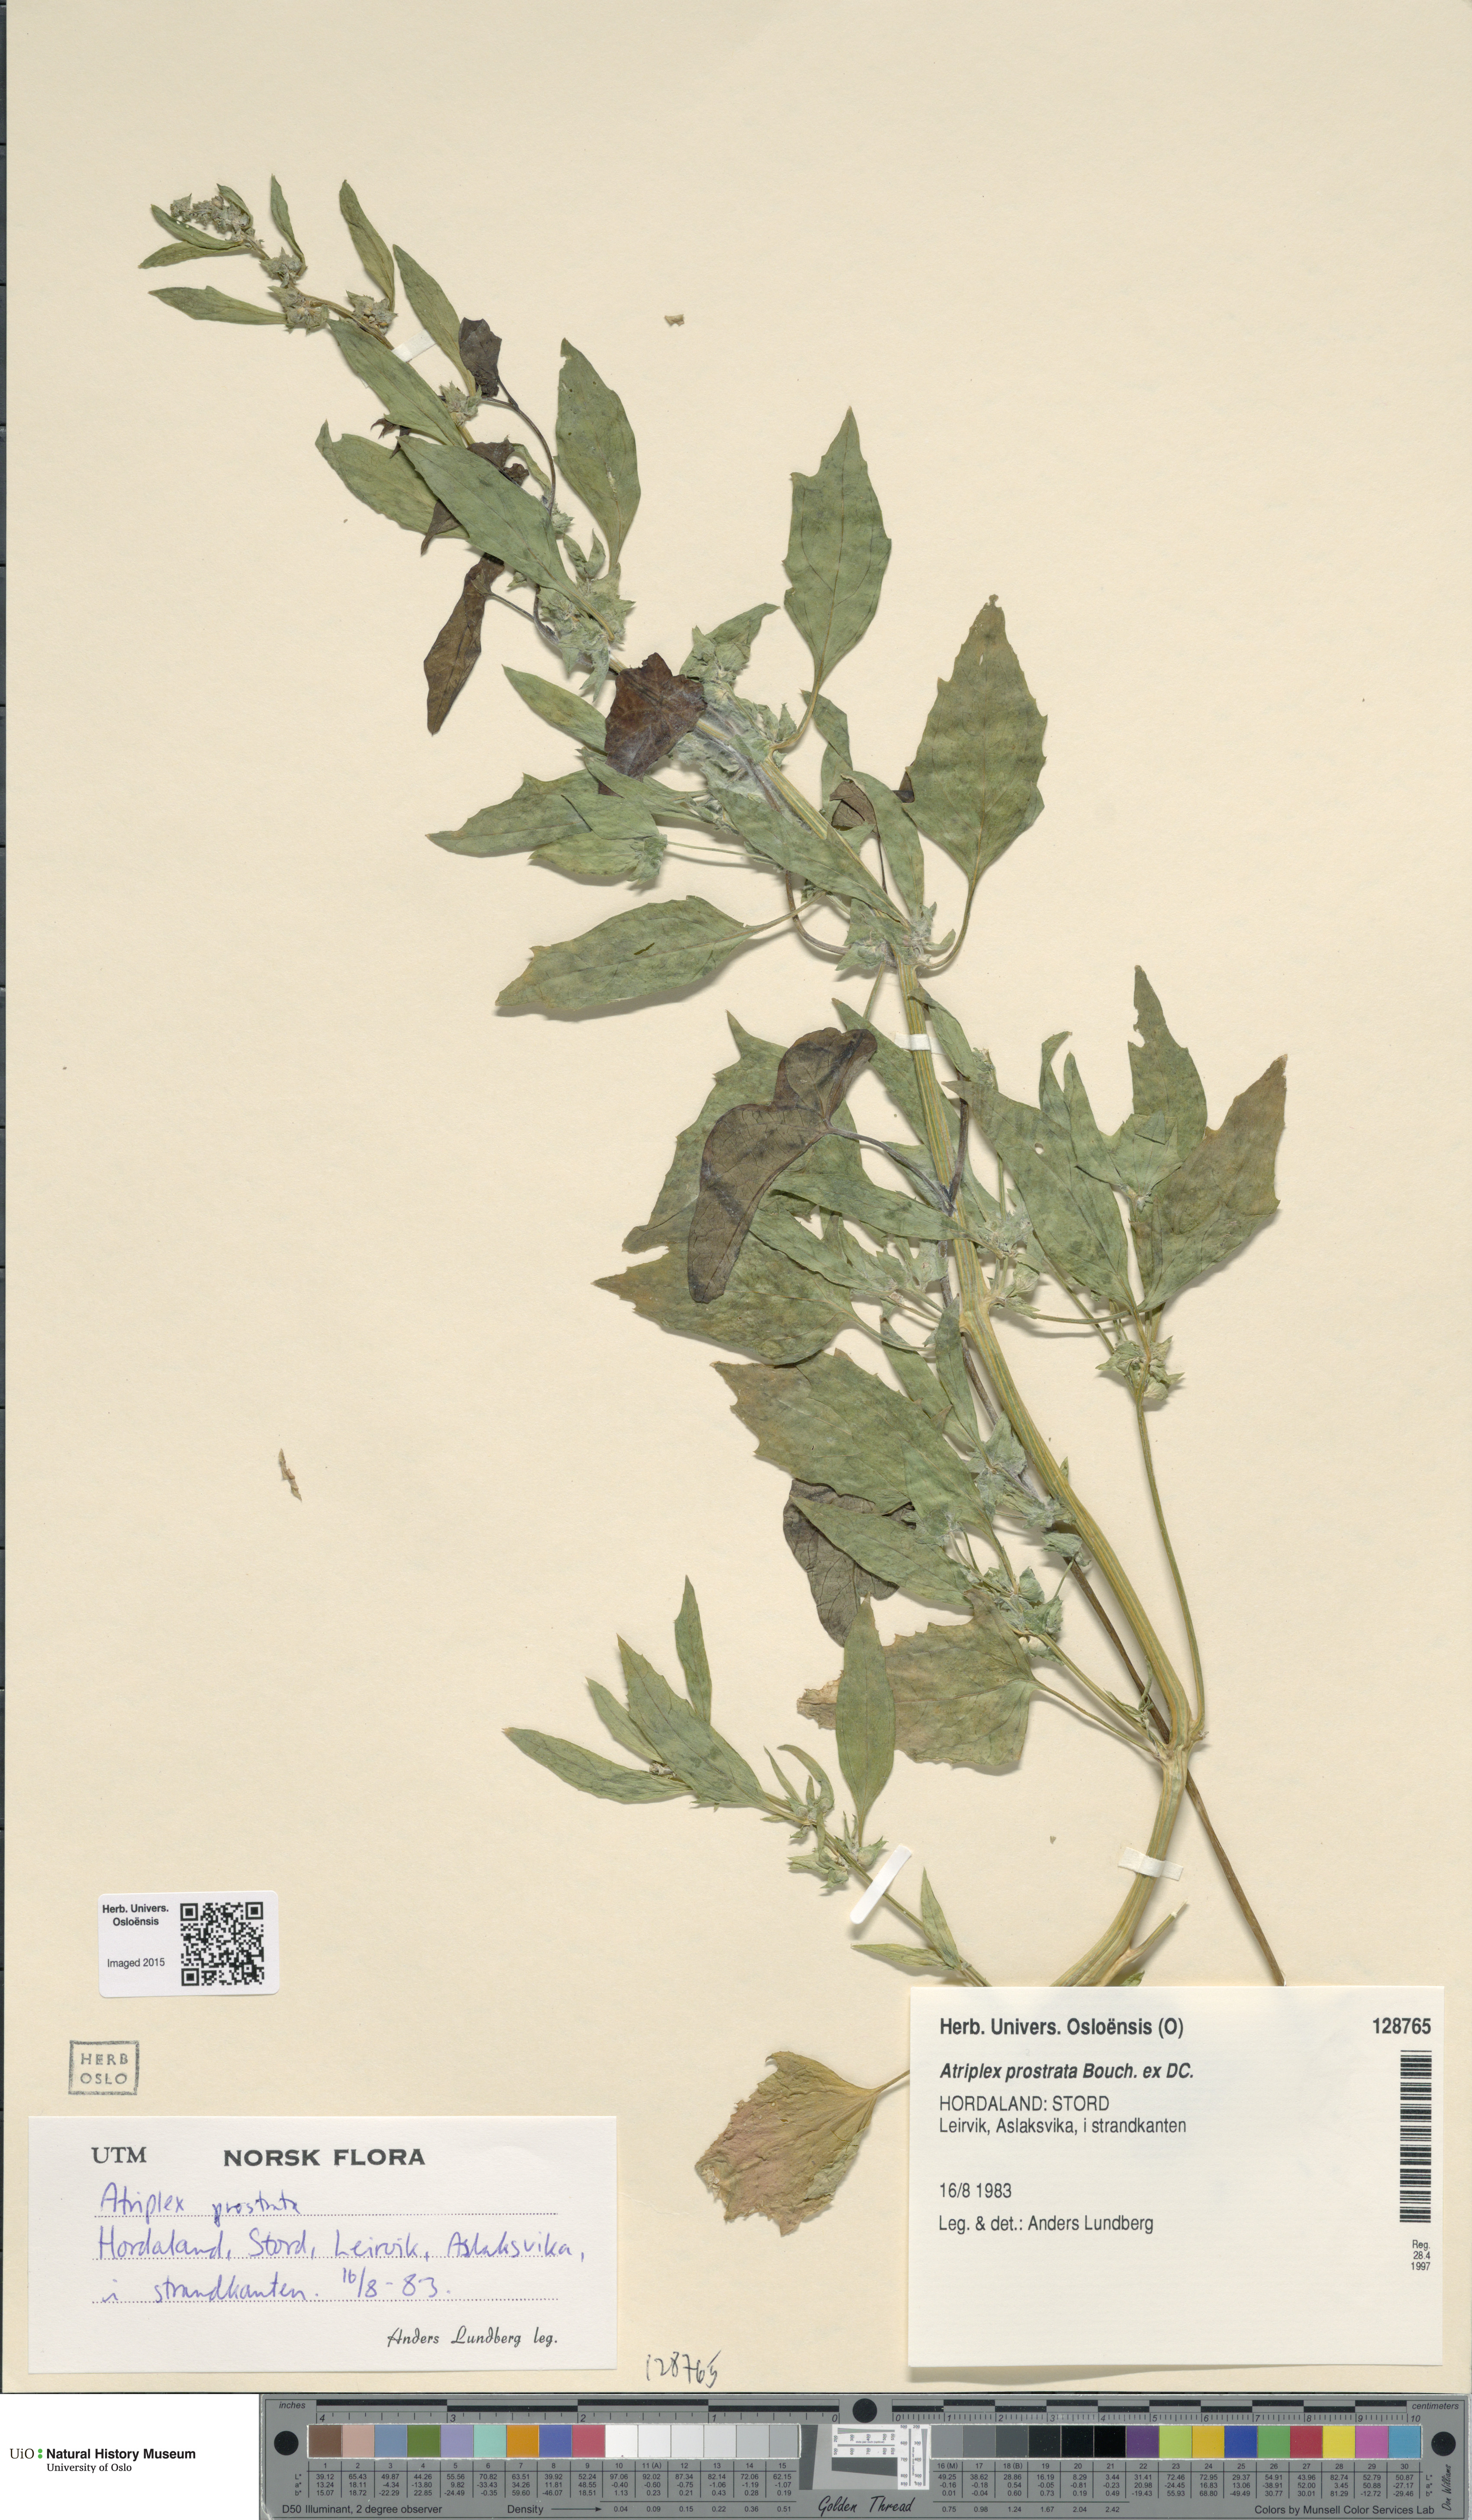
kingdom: Plantae
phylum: Tracheophyta
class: Magnoliopsida
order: Caryophyllales
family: Amaranthaceae
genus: Atriplex
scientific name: Atriplex prostrata
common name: Spear-leaved orache
